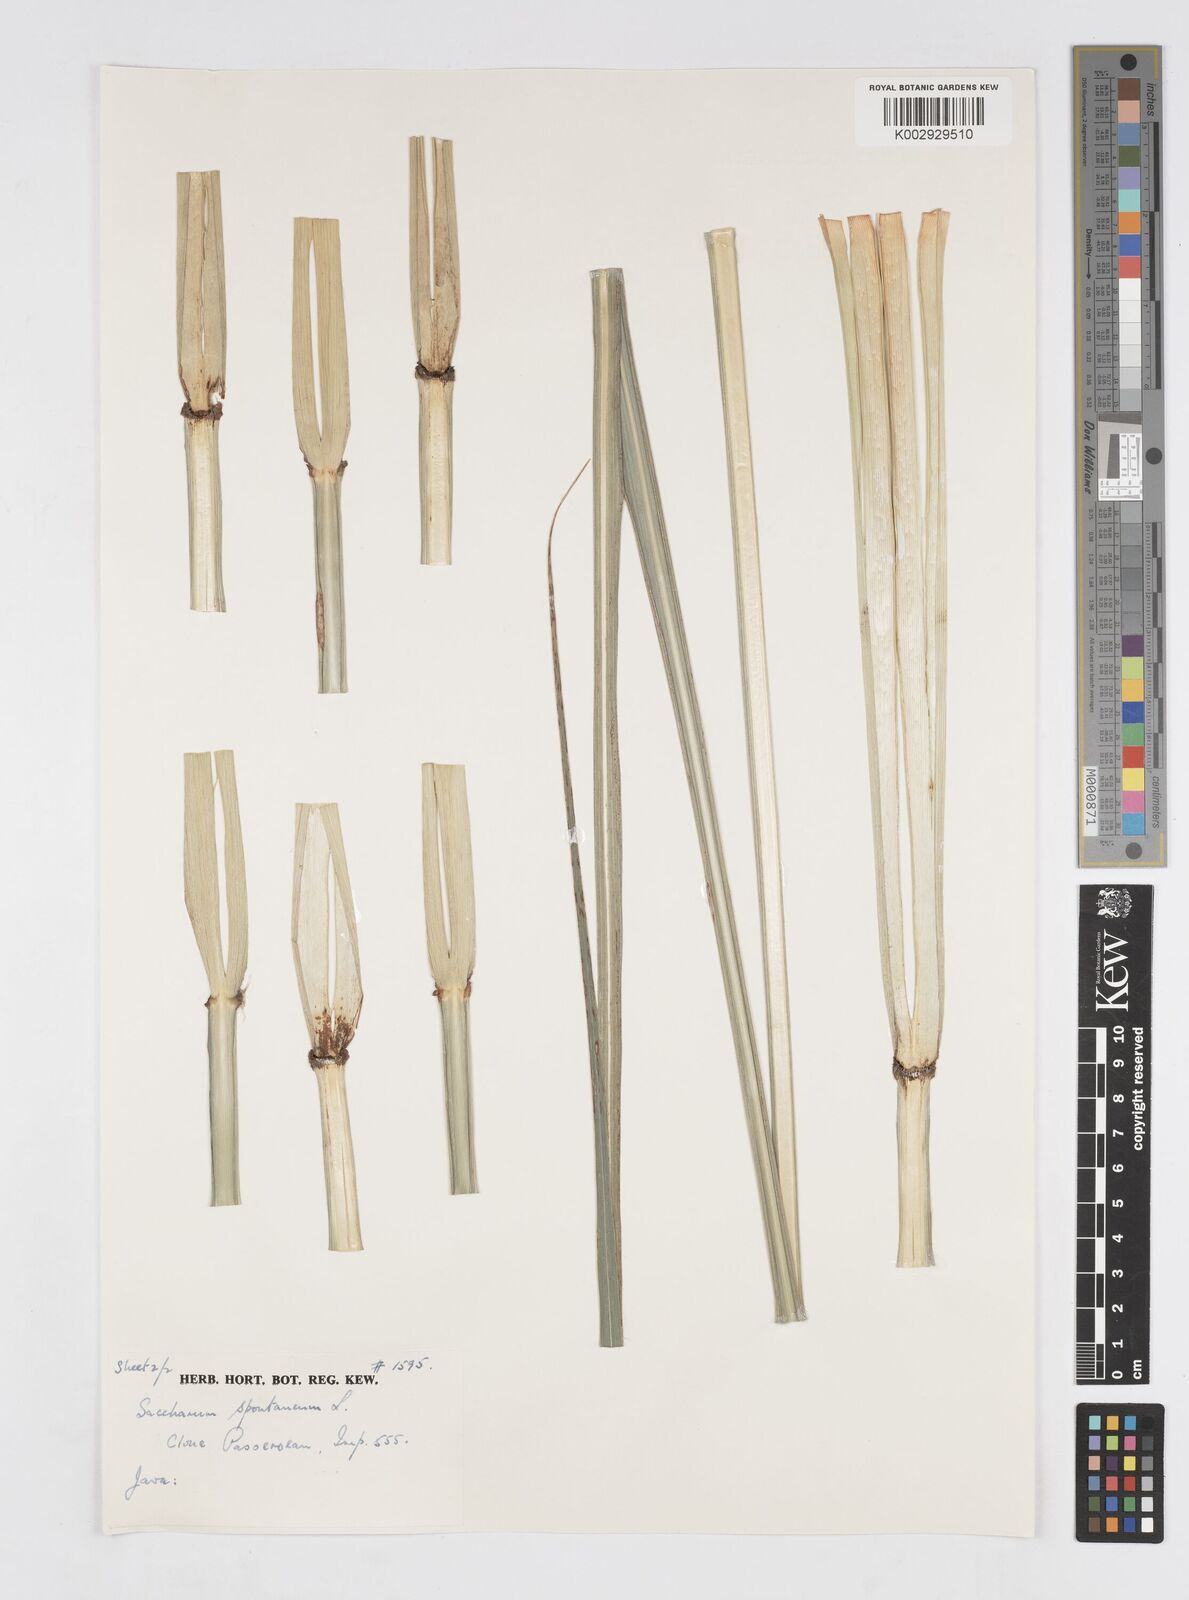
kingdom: Plantae
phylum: Tracheophyta
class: Liliopsida
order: Poales
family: Poaceae
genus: Saccharum
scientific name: Saccharum spontaneum
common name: Wild sugarcane
